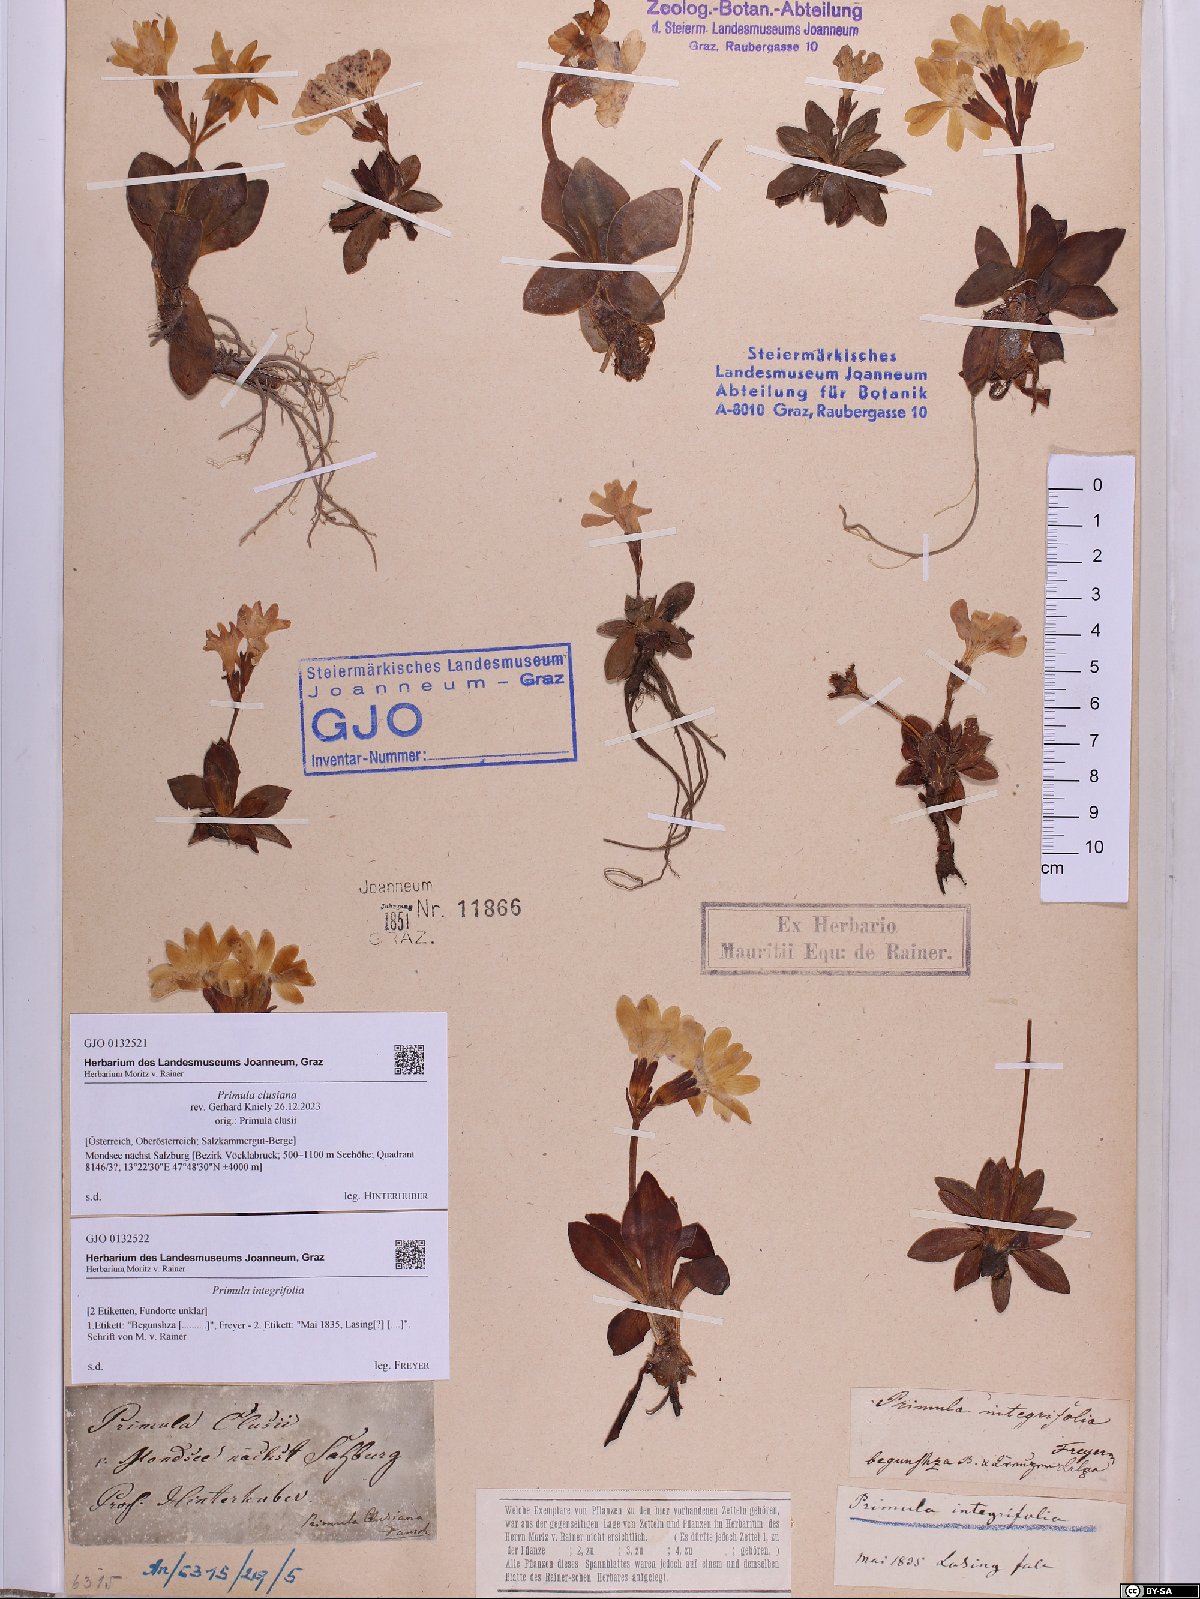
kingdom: Plantae
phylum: Tracheophyta
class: Magnoliopsida
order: Ericales
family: Primulaceae
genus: Primula
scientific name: Primula clusiana
